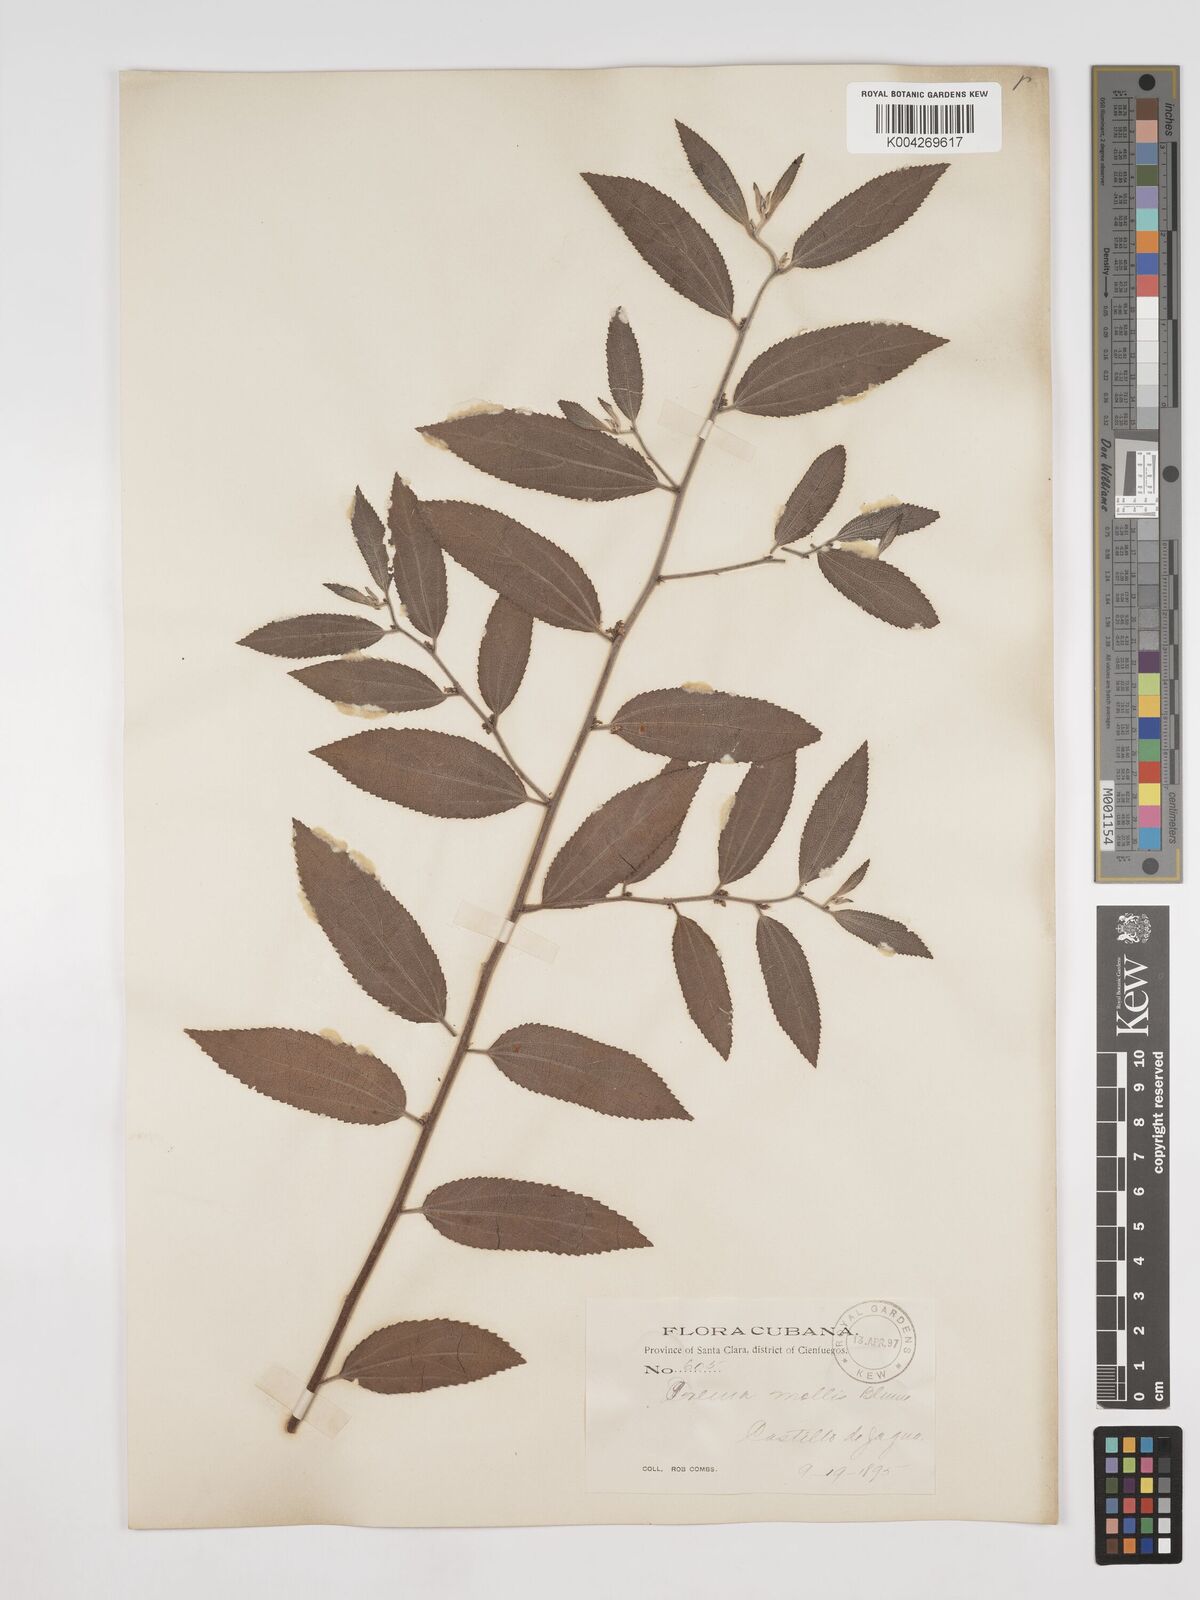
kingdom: Plantae
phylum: Tracheophyta
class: Magnoliopsida
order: Rosales
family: Cannabaceae
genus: Trema
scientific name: Trema micranthum
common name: Jamaican nettletree
